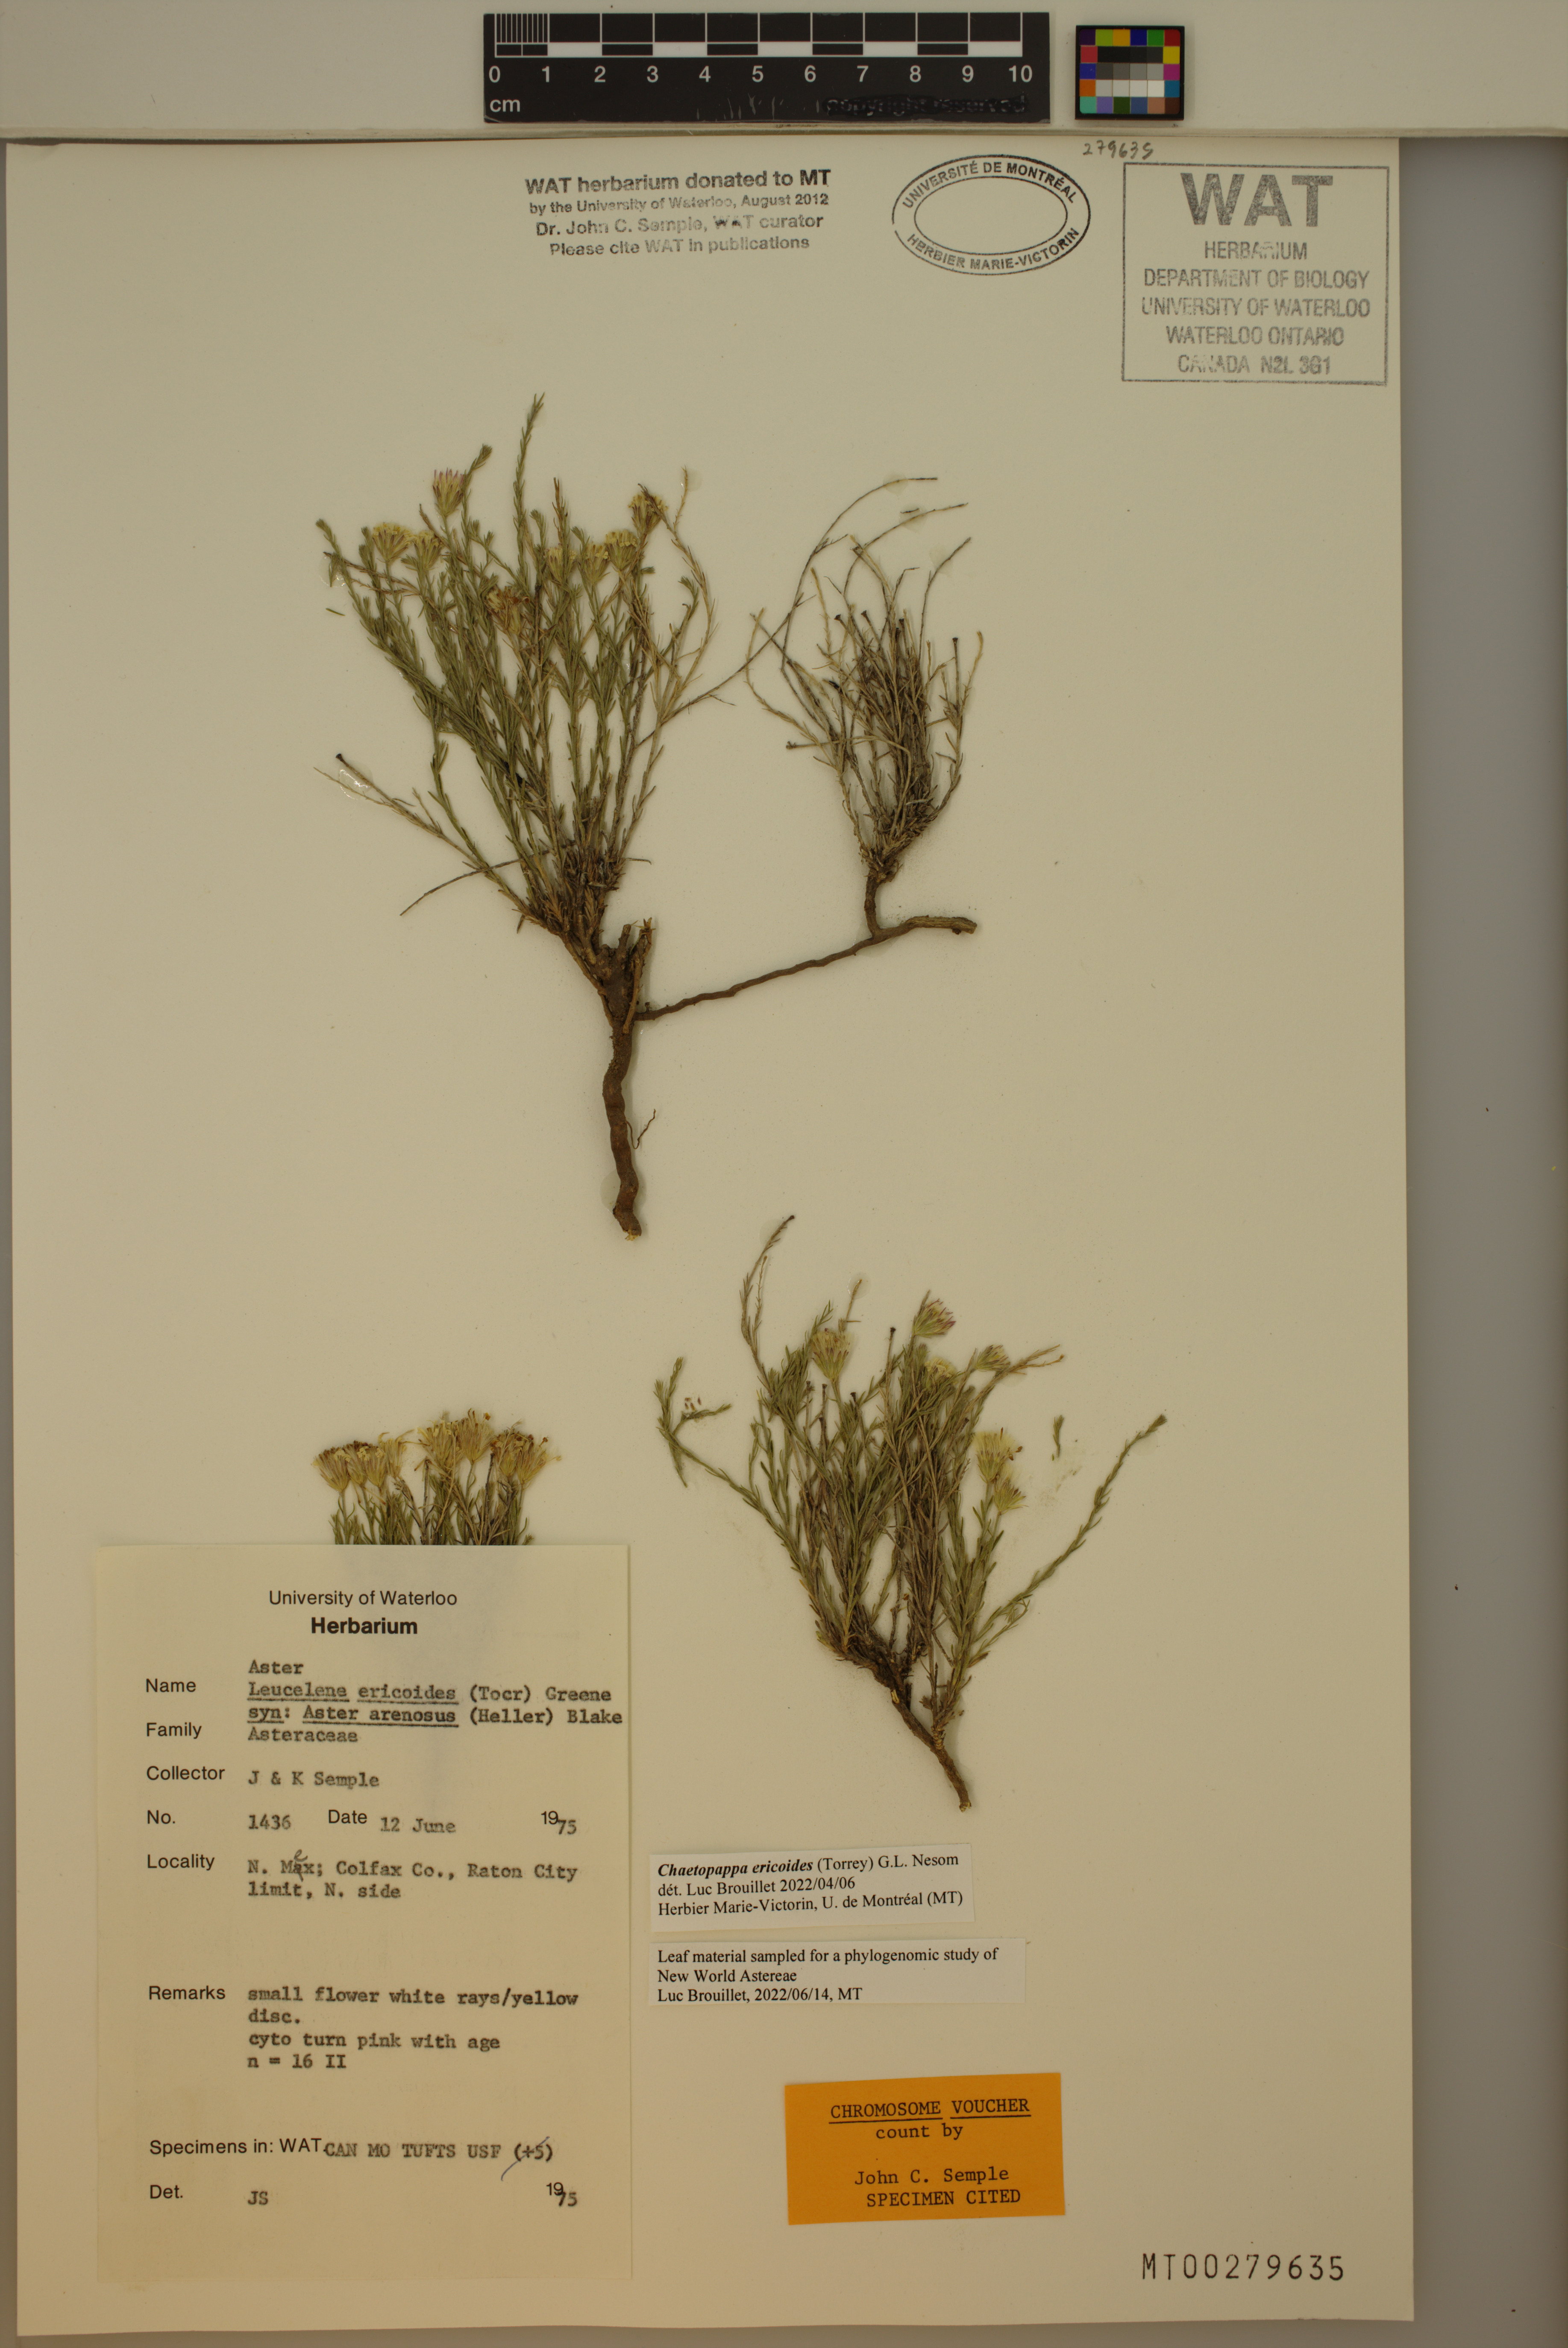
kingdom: Plantae
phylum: Tracheophyta
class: Magnoliopsida
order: Asterales
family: Asteraceae
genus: Chaetopappa
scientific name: Chaetopappa ericoides
